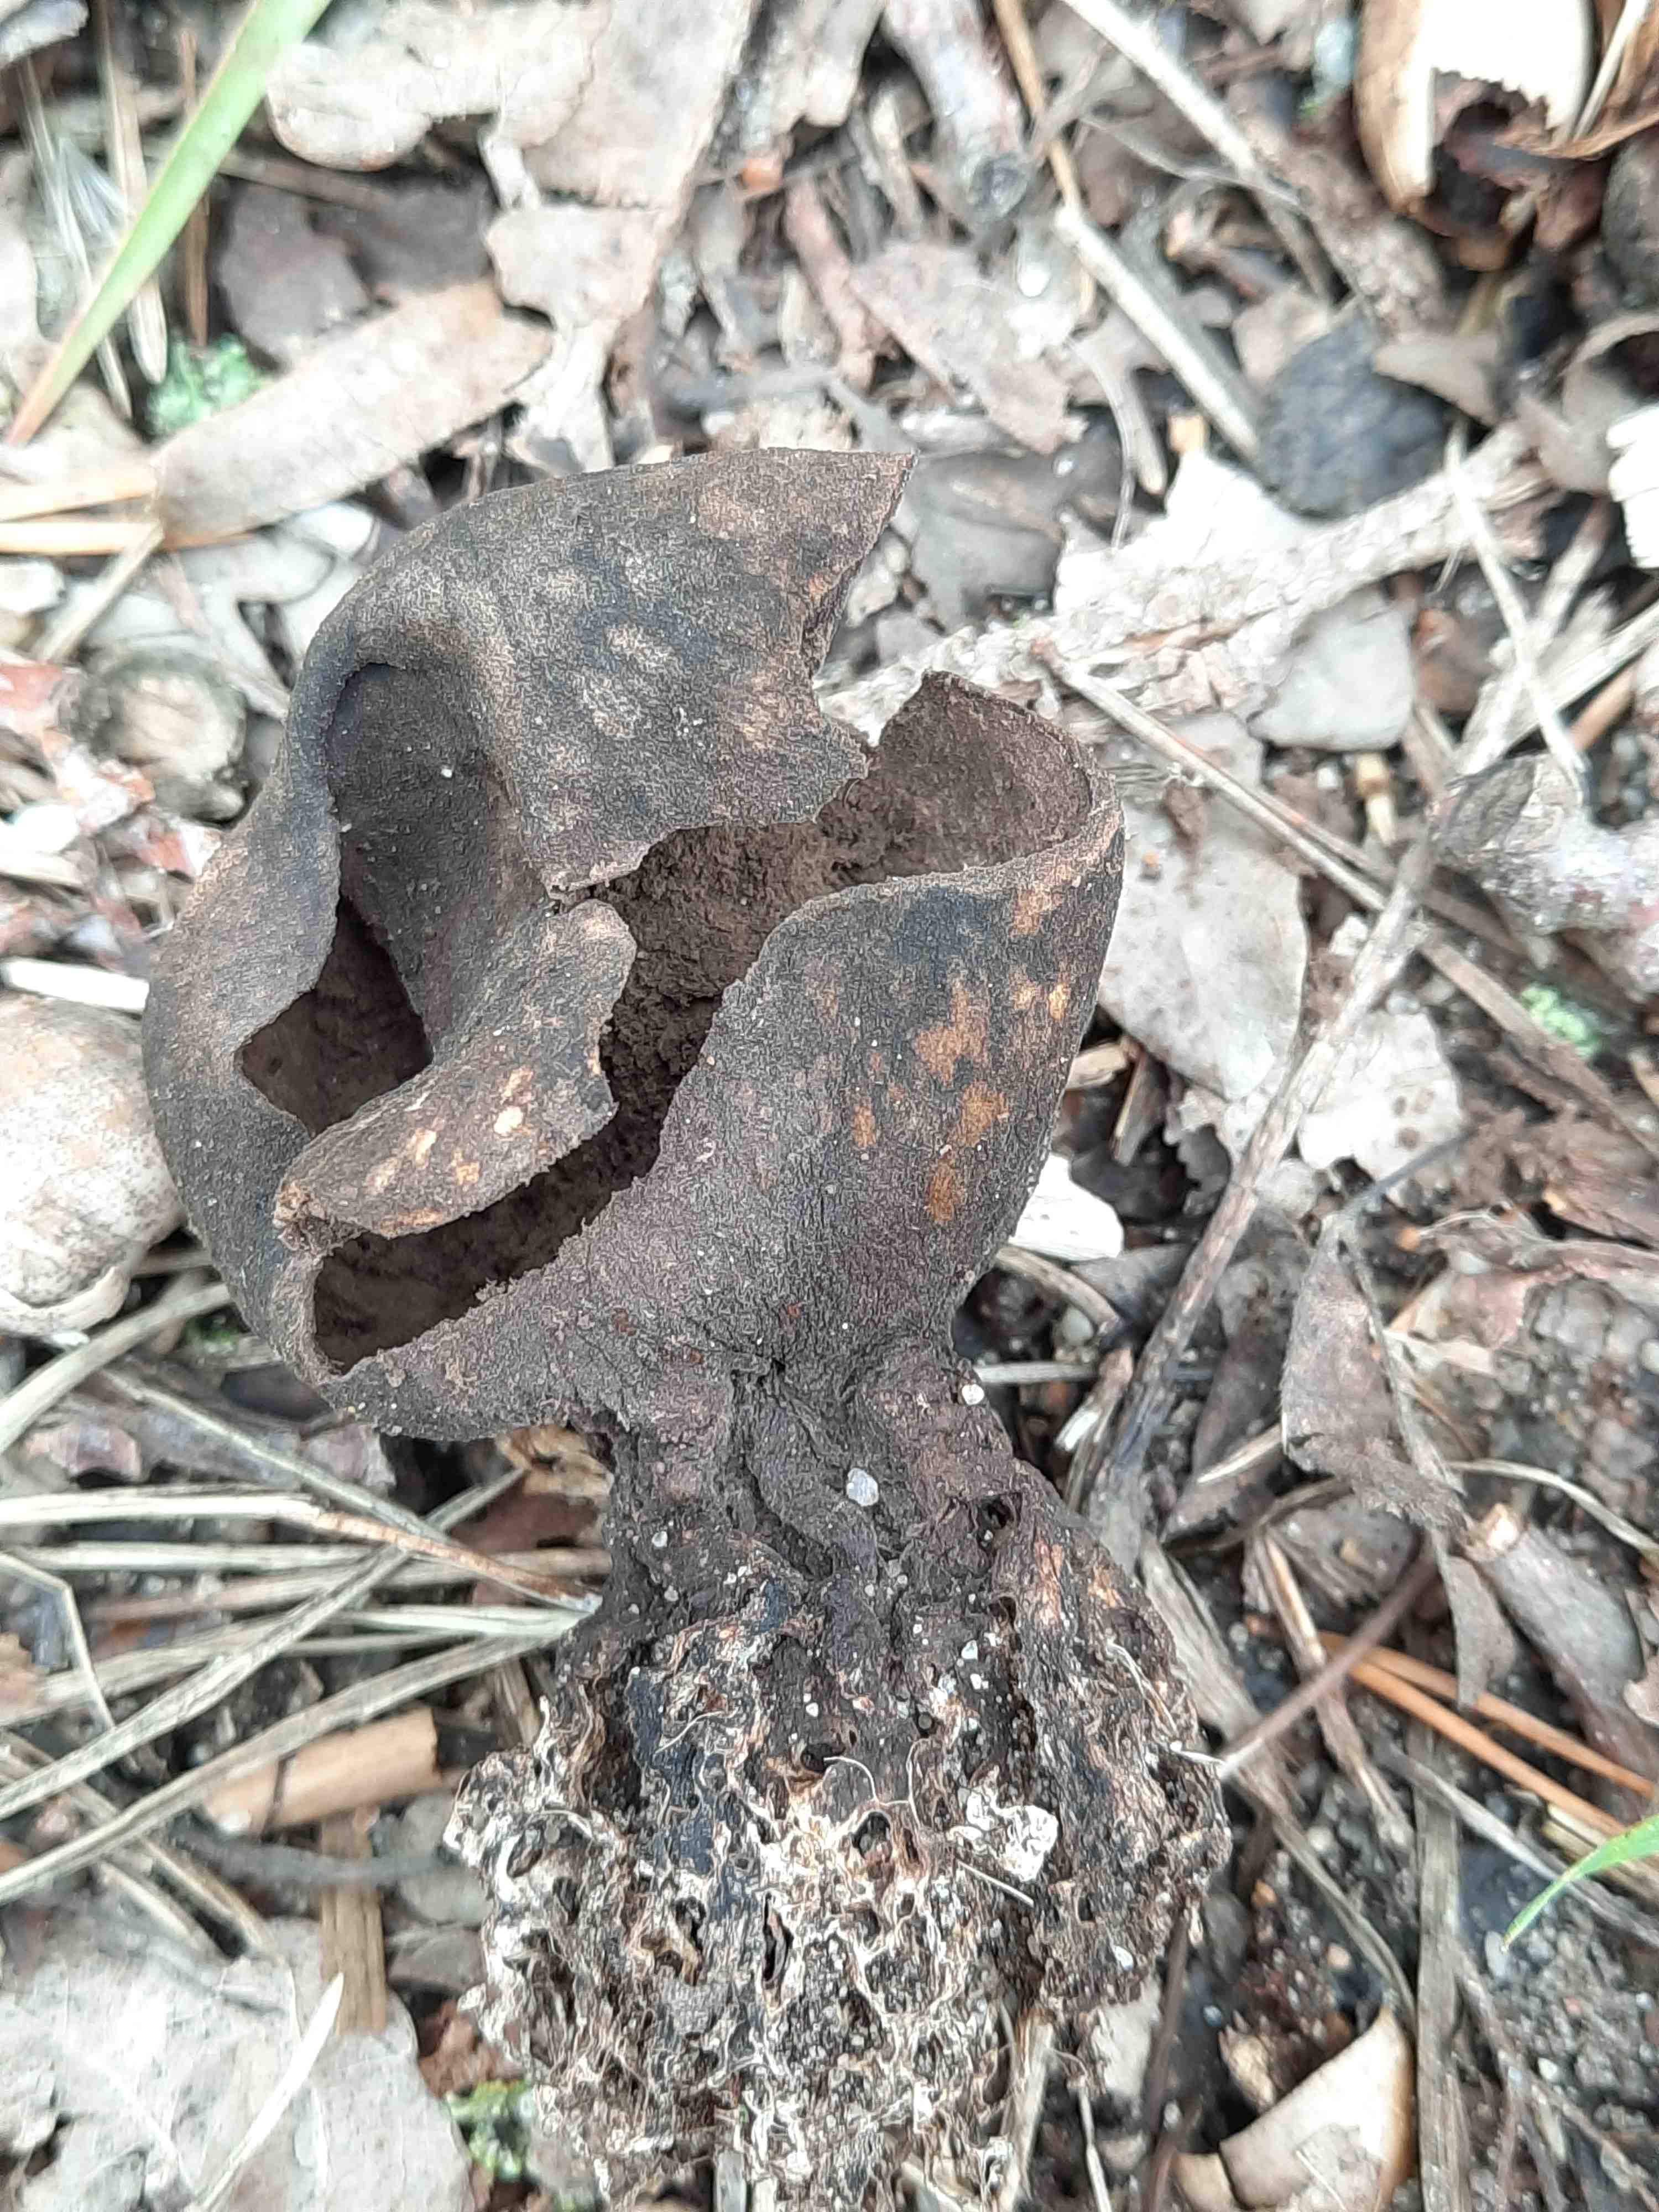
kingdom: Fungi
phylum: Basidiomycota
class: Agaricomycetes
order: Boletales
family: Sclerodermataceae
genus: Scleroderma
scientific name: Scleroderma
